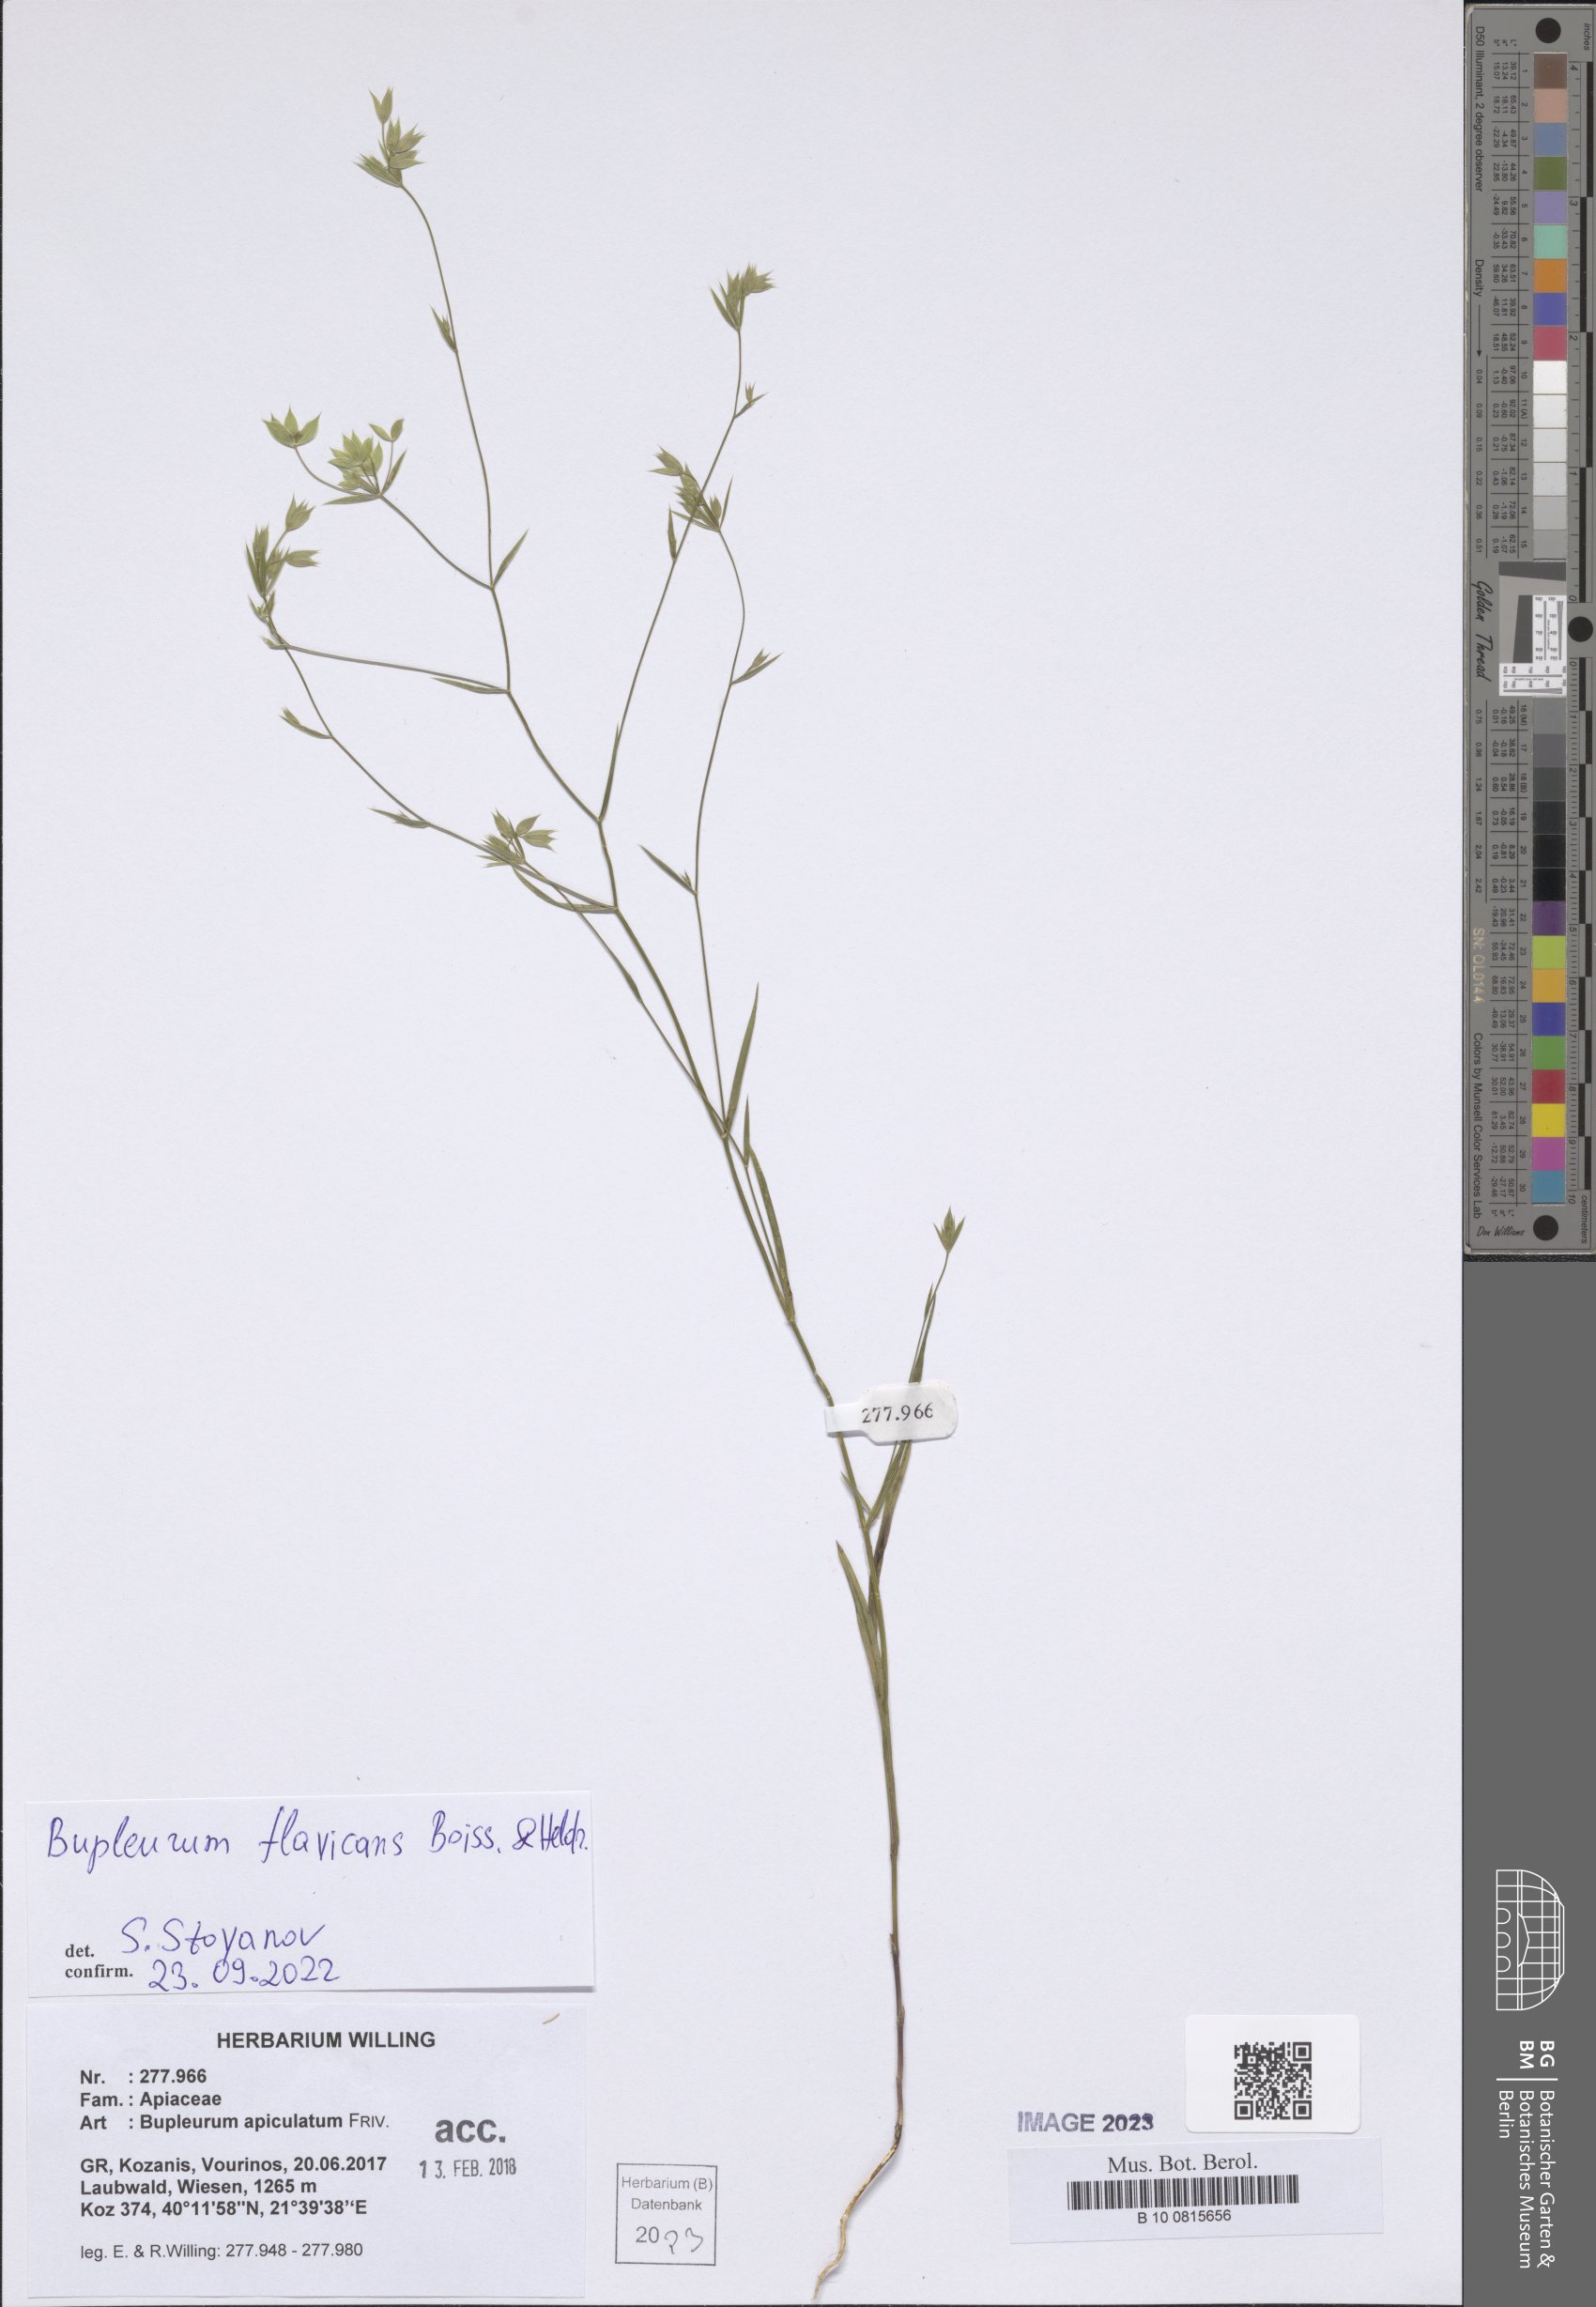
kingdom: Plantae
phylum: Tracheophyta
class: Magnoliopsida
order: Apiales
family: Apiaceae
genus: Bupleurum
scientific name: Bupleurum flavicans
